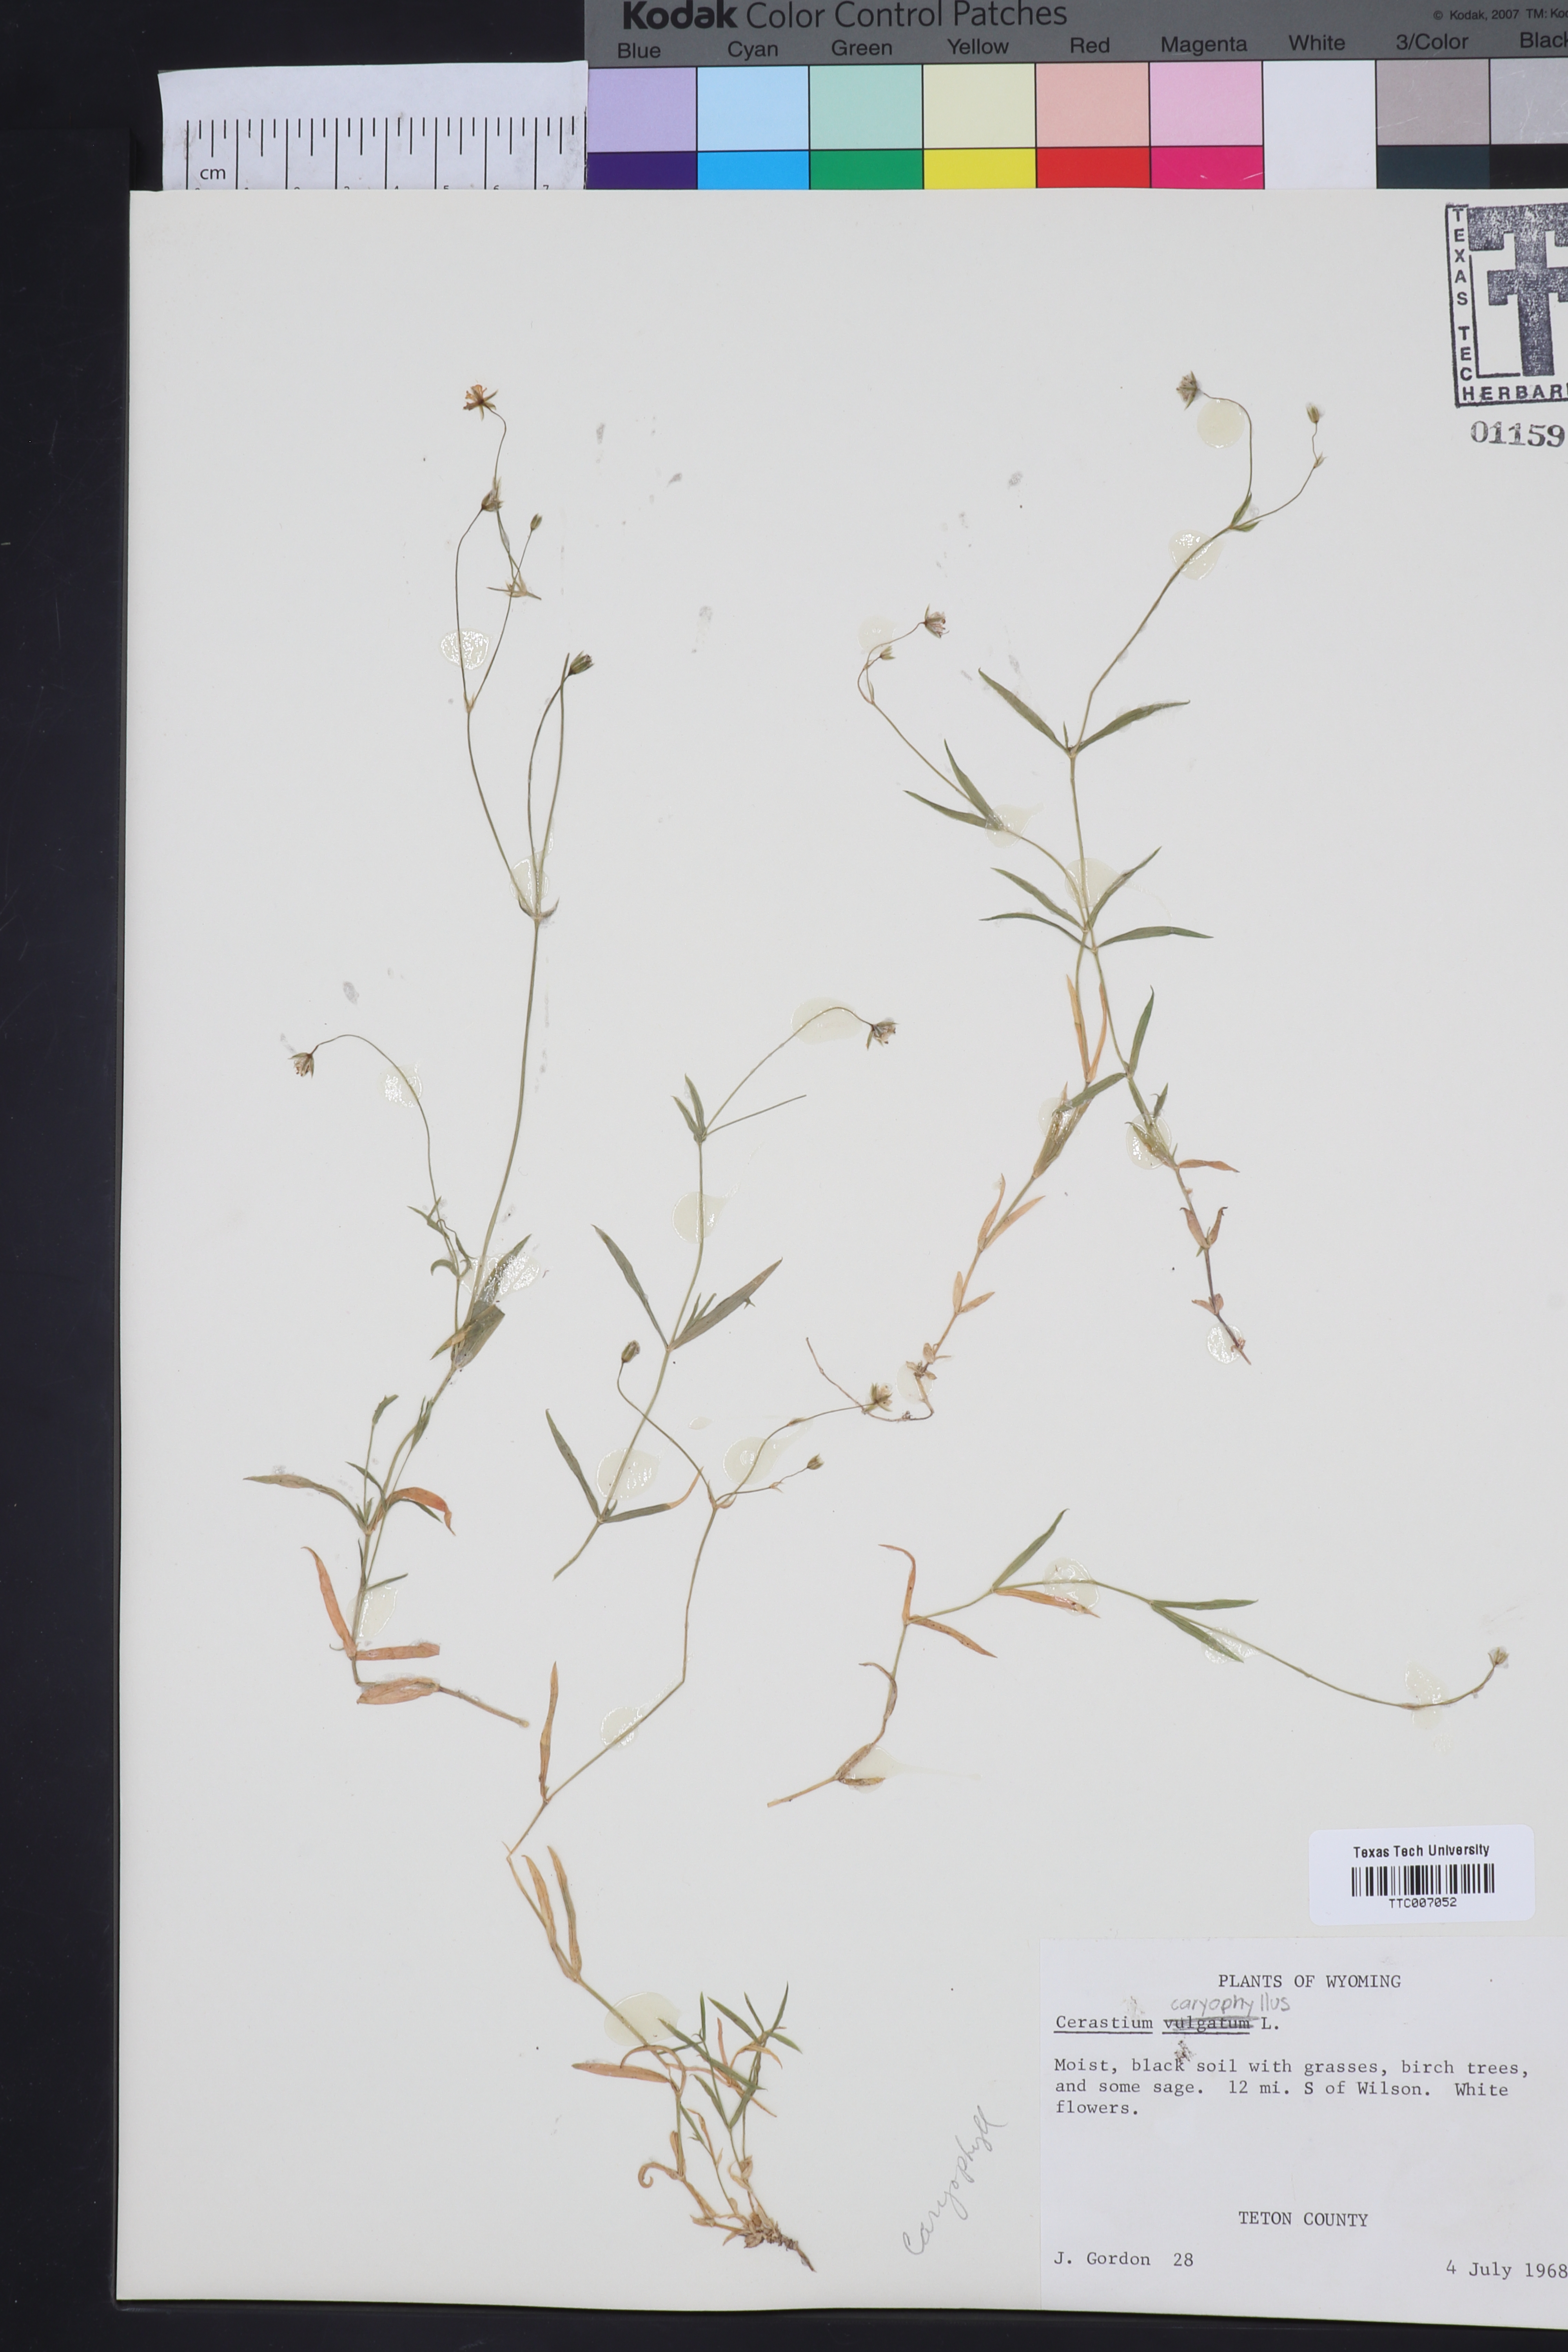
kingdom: Plantae
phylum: Tracheophyta
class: Magnoliopsida
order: Caryophyllales
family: Caryophyllaceae
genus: Cerastium
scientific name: Cerastium
